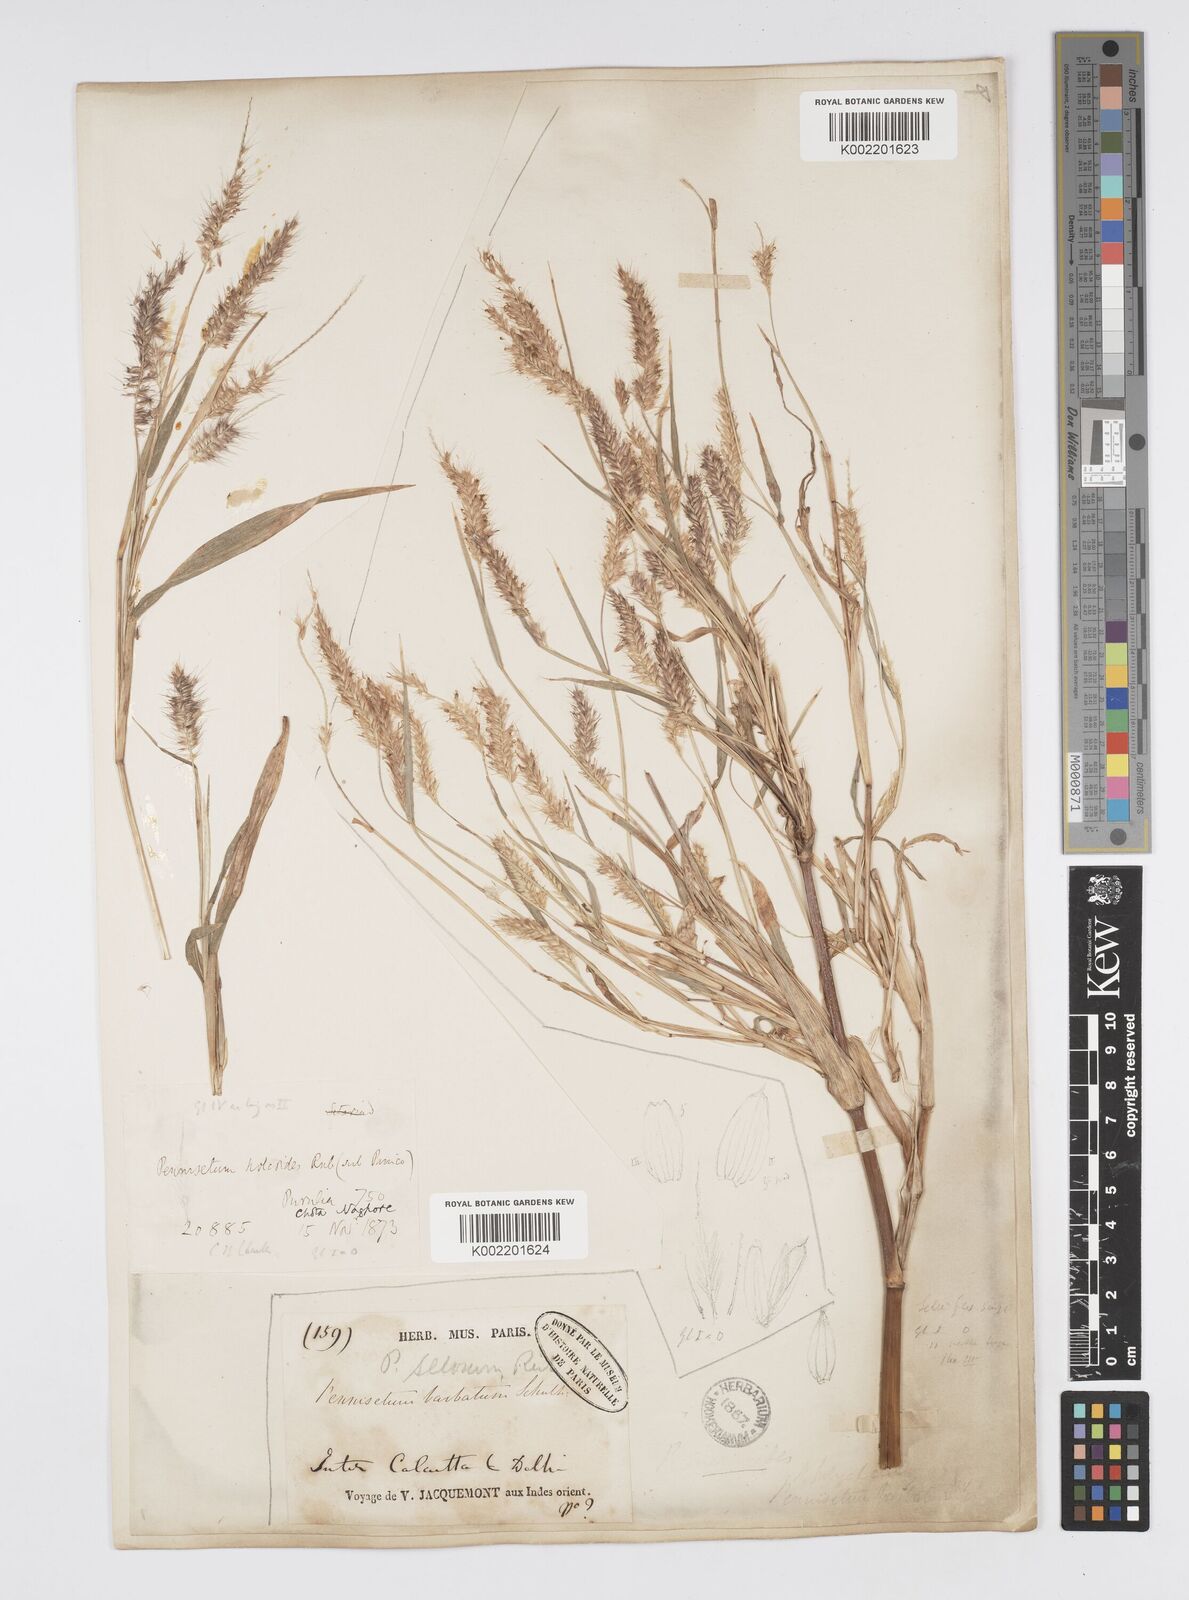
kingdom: Plantae
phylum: Tracheophyta
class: Liliopsida
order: Poales
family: Poaceae
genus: Setaria
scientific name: Setaria parviflora
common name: Knotroot bristle-grass
